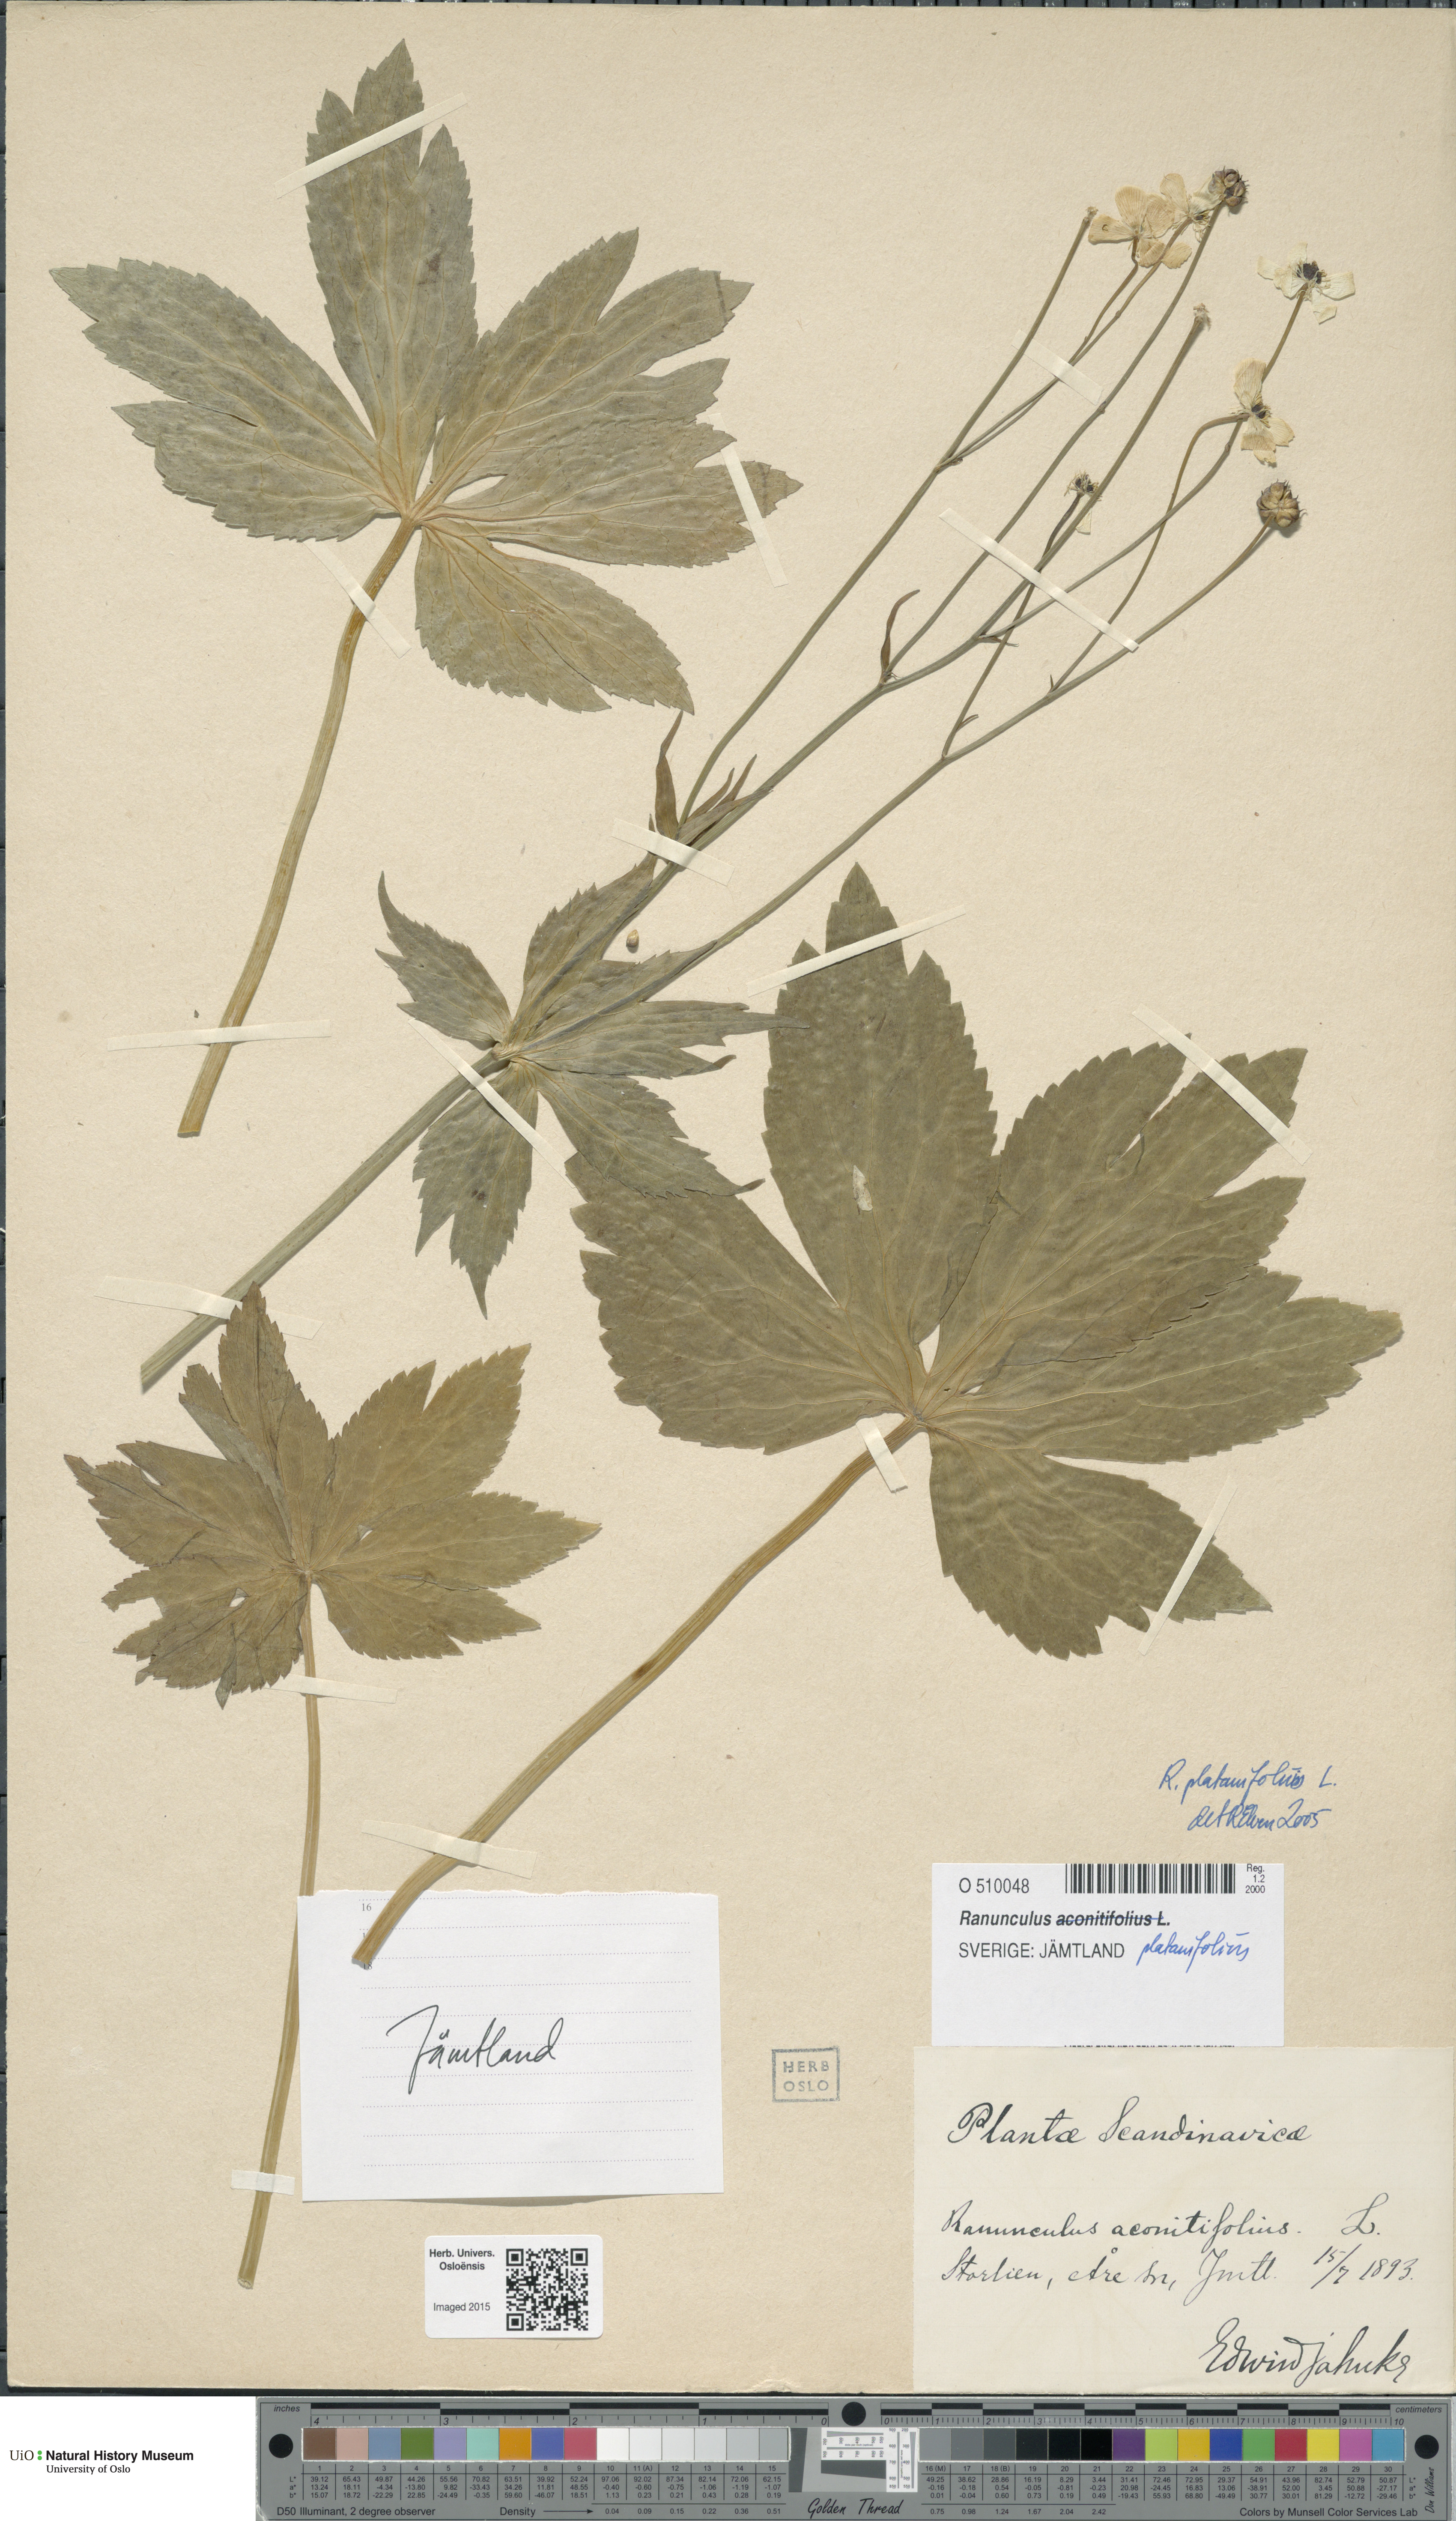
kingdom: Plantae
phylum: Tracheophyta
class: Magnoliopsida
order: Ranunculales
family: Ranunculaceae
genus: Ranunculus
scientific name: Ranunculus platanifolius
